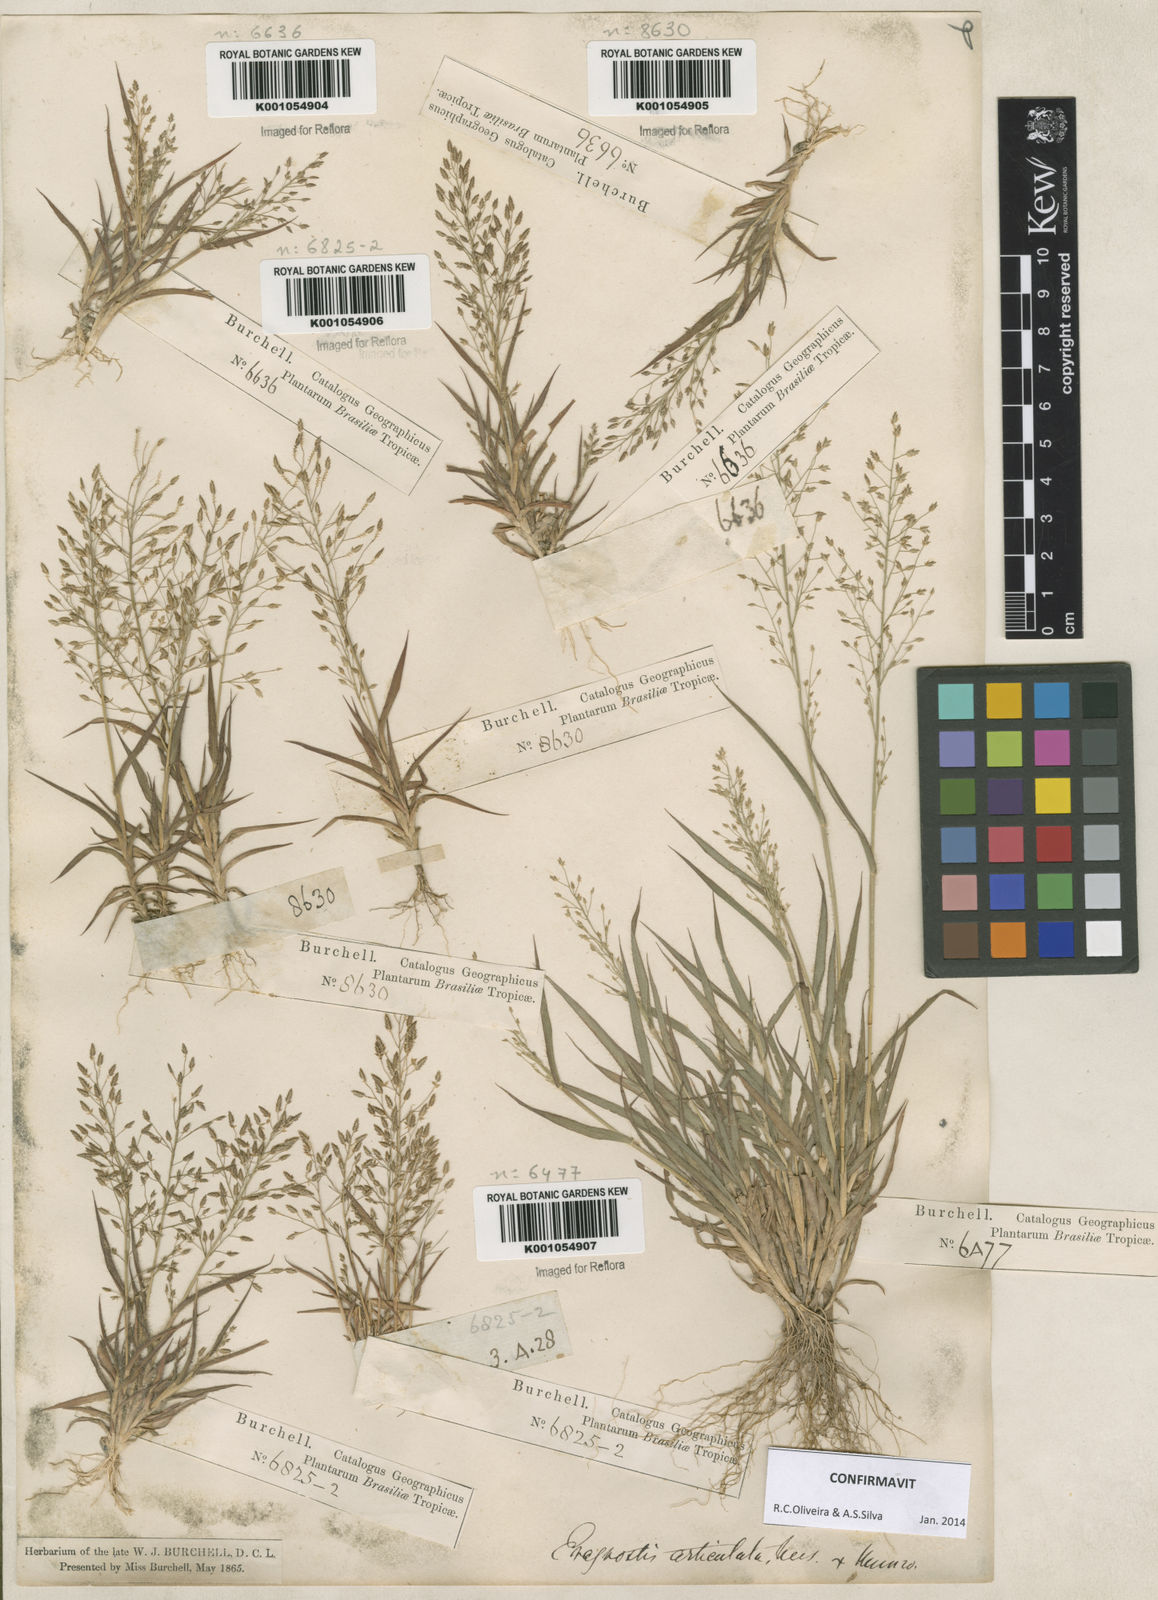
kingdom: Plantae
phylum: Tracheophyta
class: Liliopsida
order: Poales
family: Poaceae
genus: Eragrostis
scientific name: Eragrostis articulata
